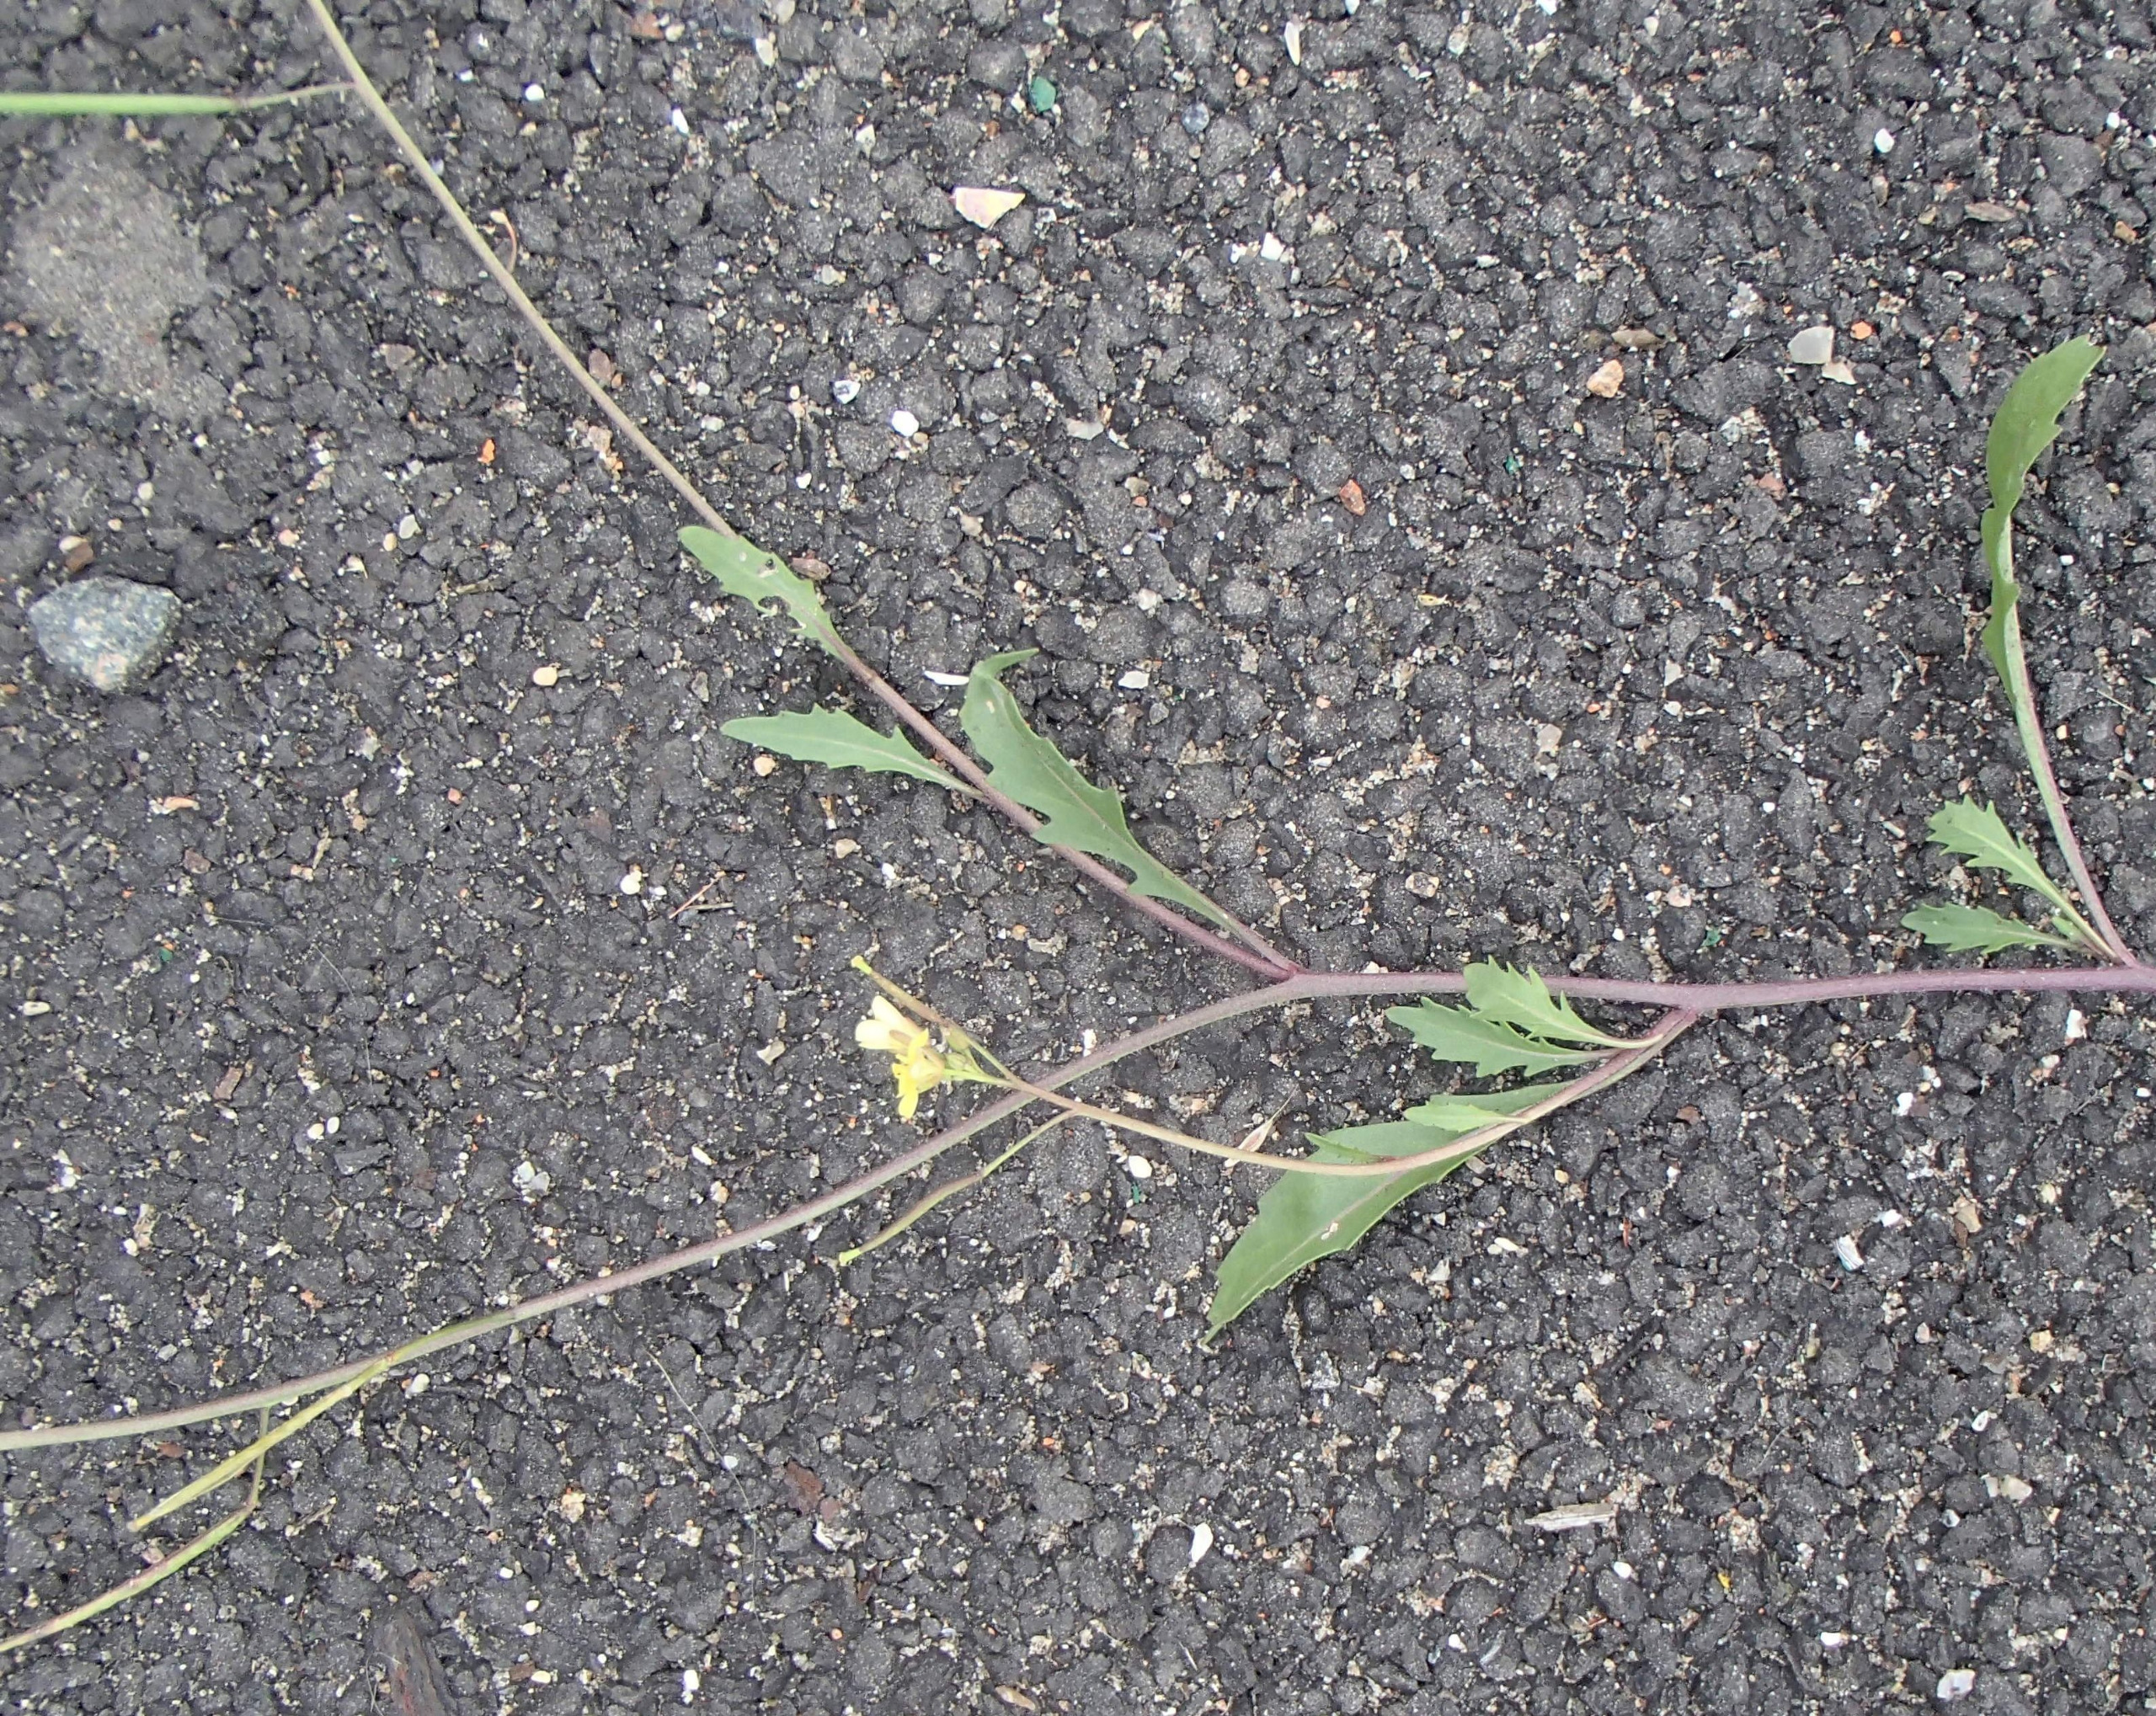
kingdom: Plantae
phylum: Tracheophyta
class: Magnoliopsida
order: Brassicales
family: Brassicaceae
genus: Diplotaxis
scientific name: Diplotaxis muralis
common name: Mursennep
